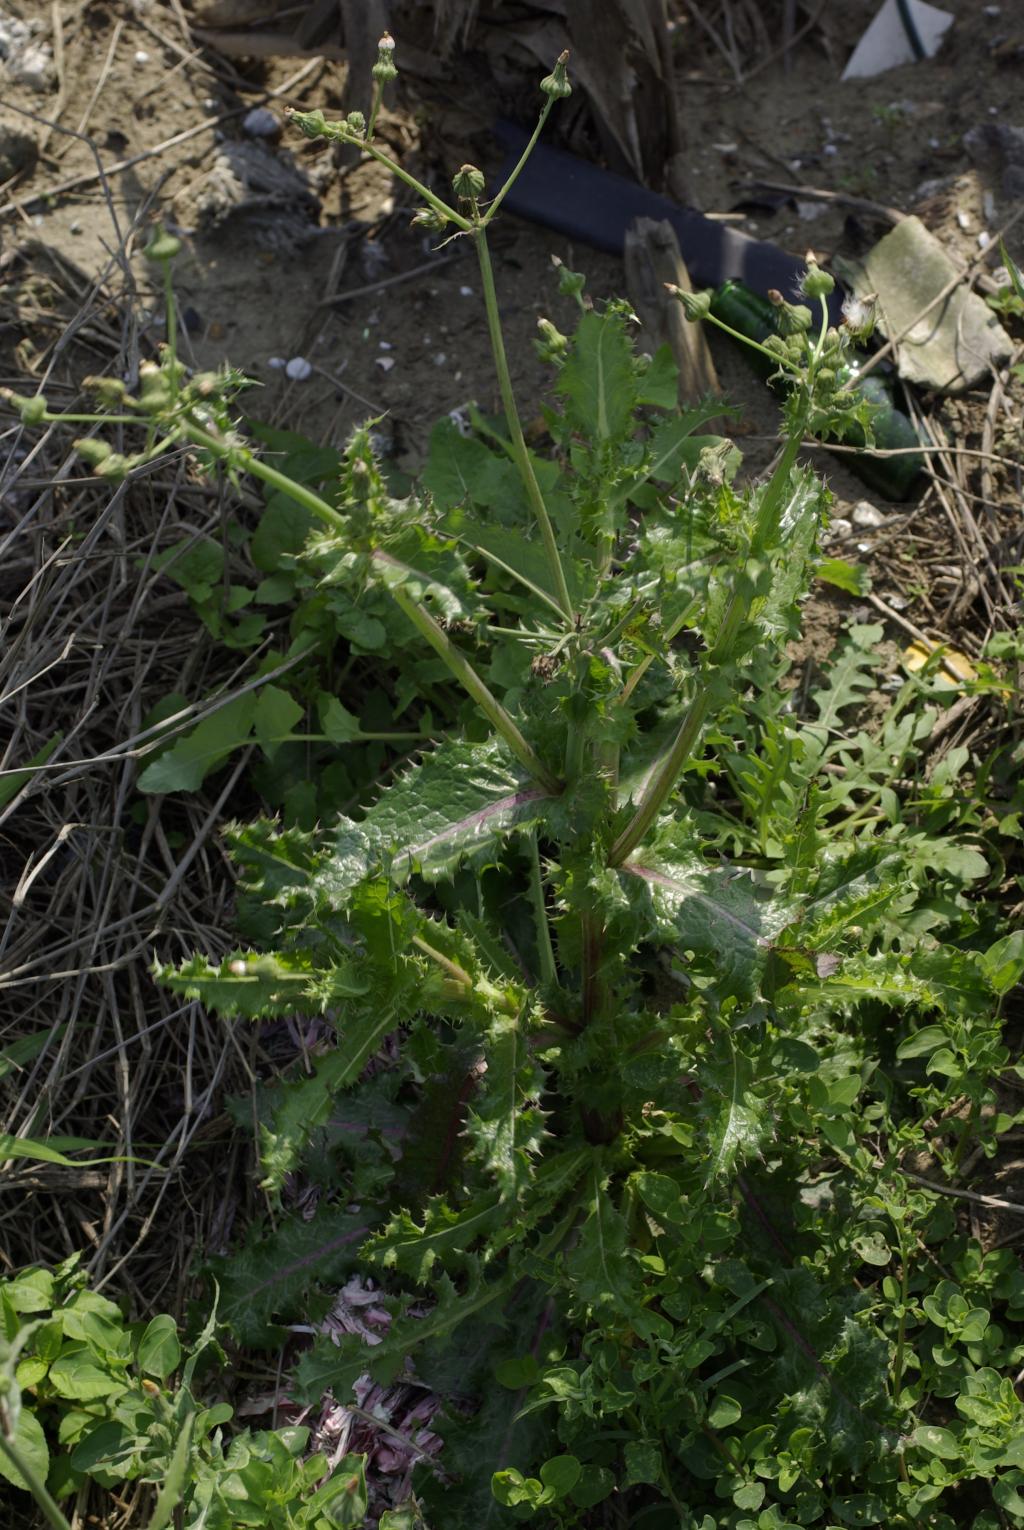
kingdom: Plantae
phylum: Tracheophyta
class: Magnoliopsida
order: Asterales
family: Asteraceae
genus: Sonchus
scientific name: Sonchus asper
